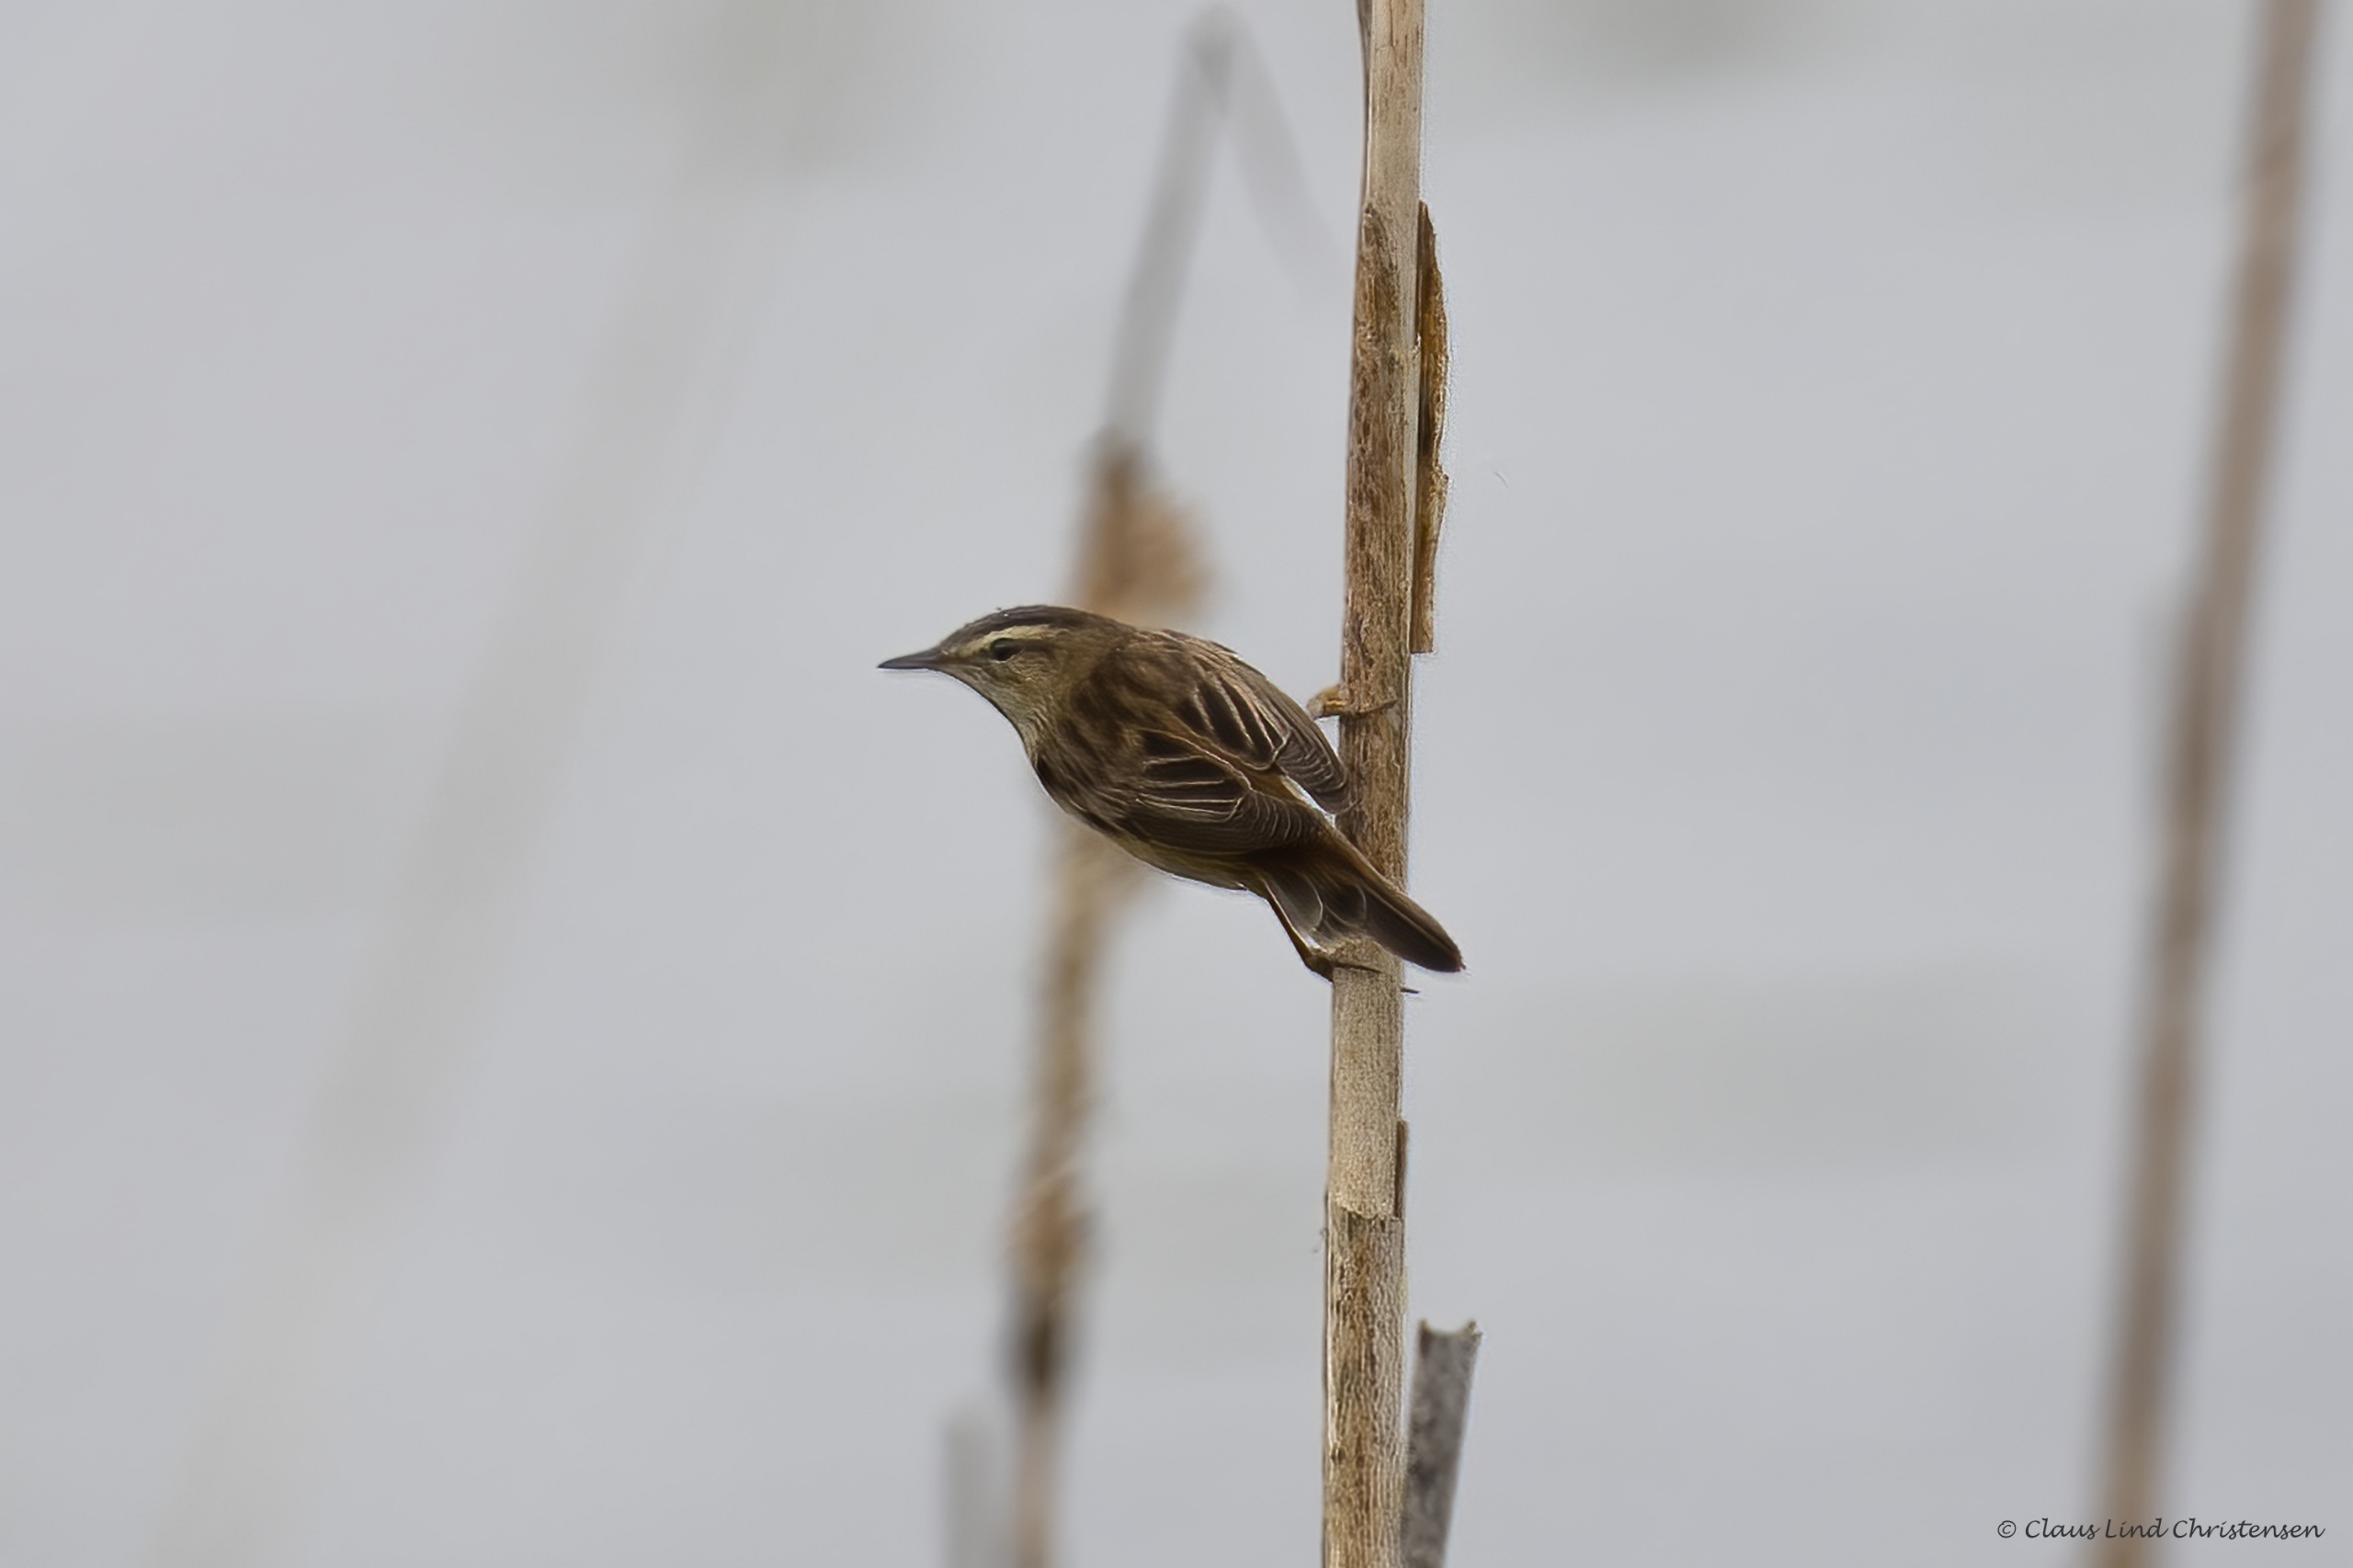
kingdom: Animalia
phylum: Chordata
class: Aves
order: Passeriformes
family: Acrocephalidae
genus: Acrocephalus
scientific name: Acrocephalus schoenobaenus
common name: Sivsanger
